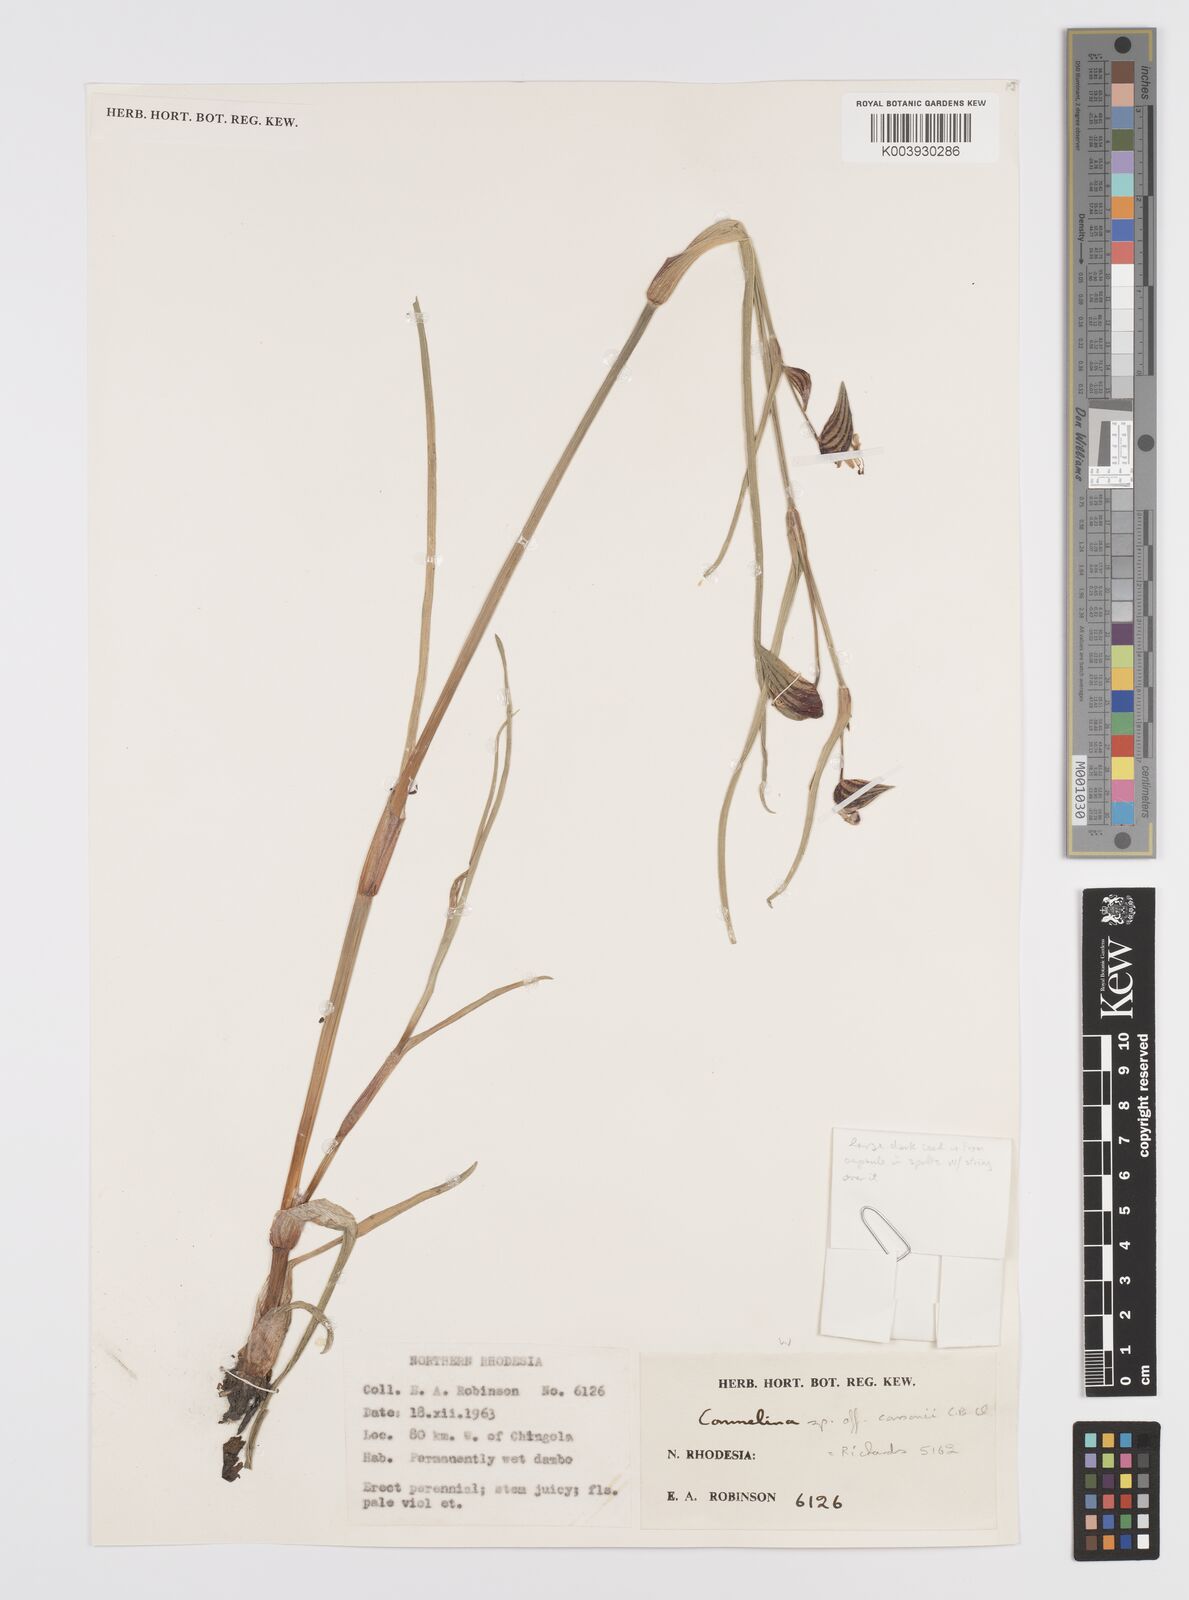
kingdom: Plantae
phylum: Tracheophyta
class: Liliopsida
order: Commelinales
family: Commelinaceae
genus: Commelina
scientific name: Commelina schweinfurthii
